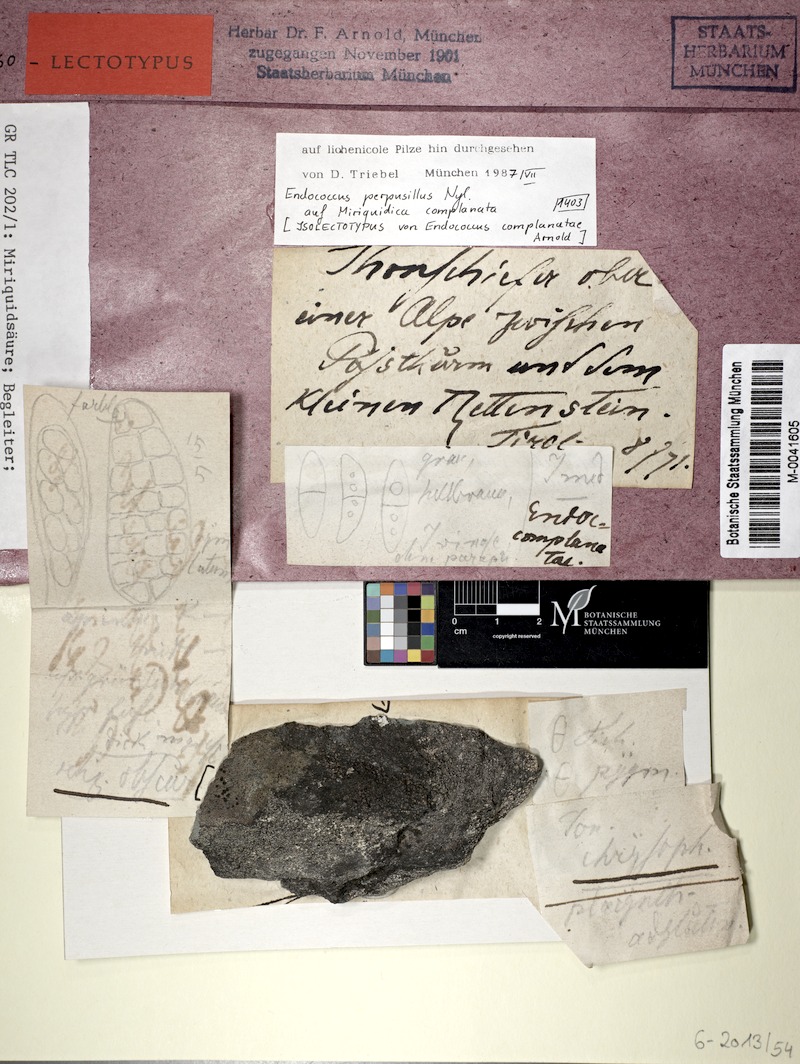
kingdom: Fungi
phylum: Ascomycota
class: Dothideomycetes
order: Dothideales
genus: Endococcus
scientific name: Endococcus rugulosus
